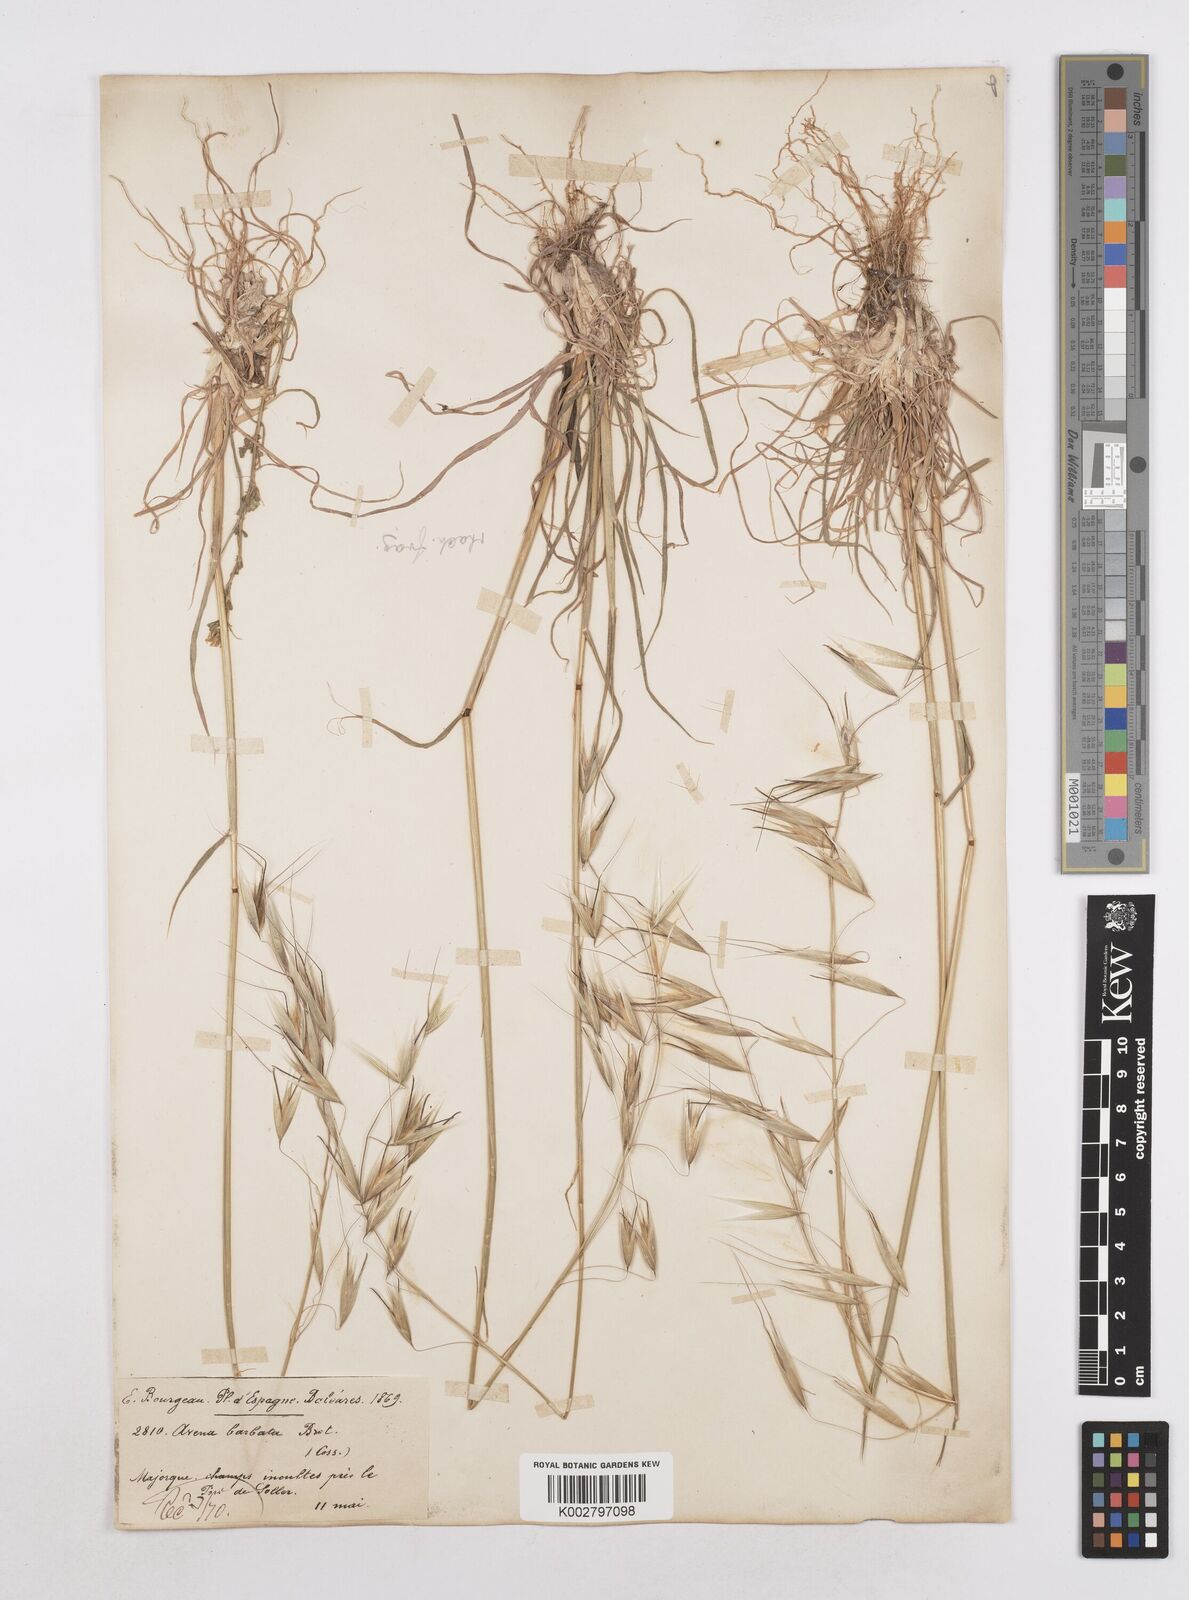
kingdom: Plantae
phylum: Tracheophyta
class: Liliopsida
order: Poales
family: Poaceae
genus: Avena
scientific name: Avena
